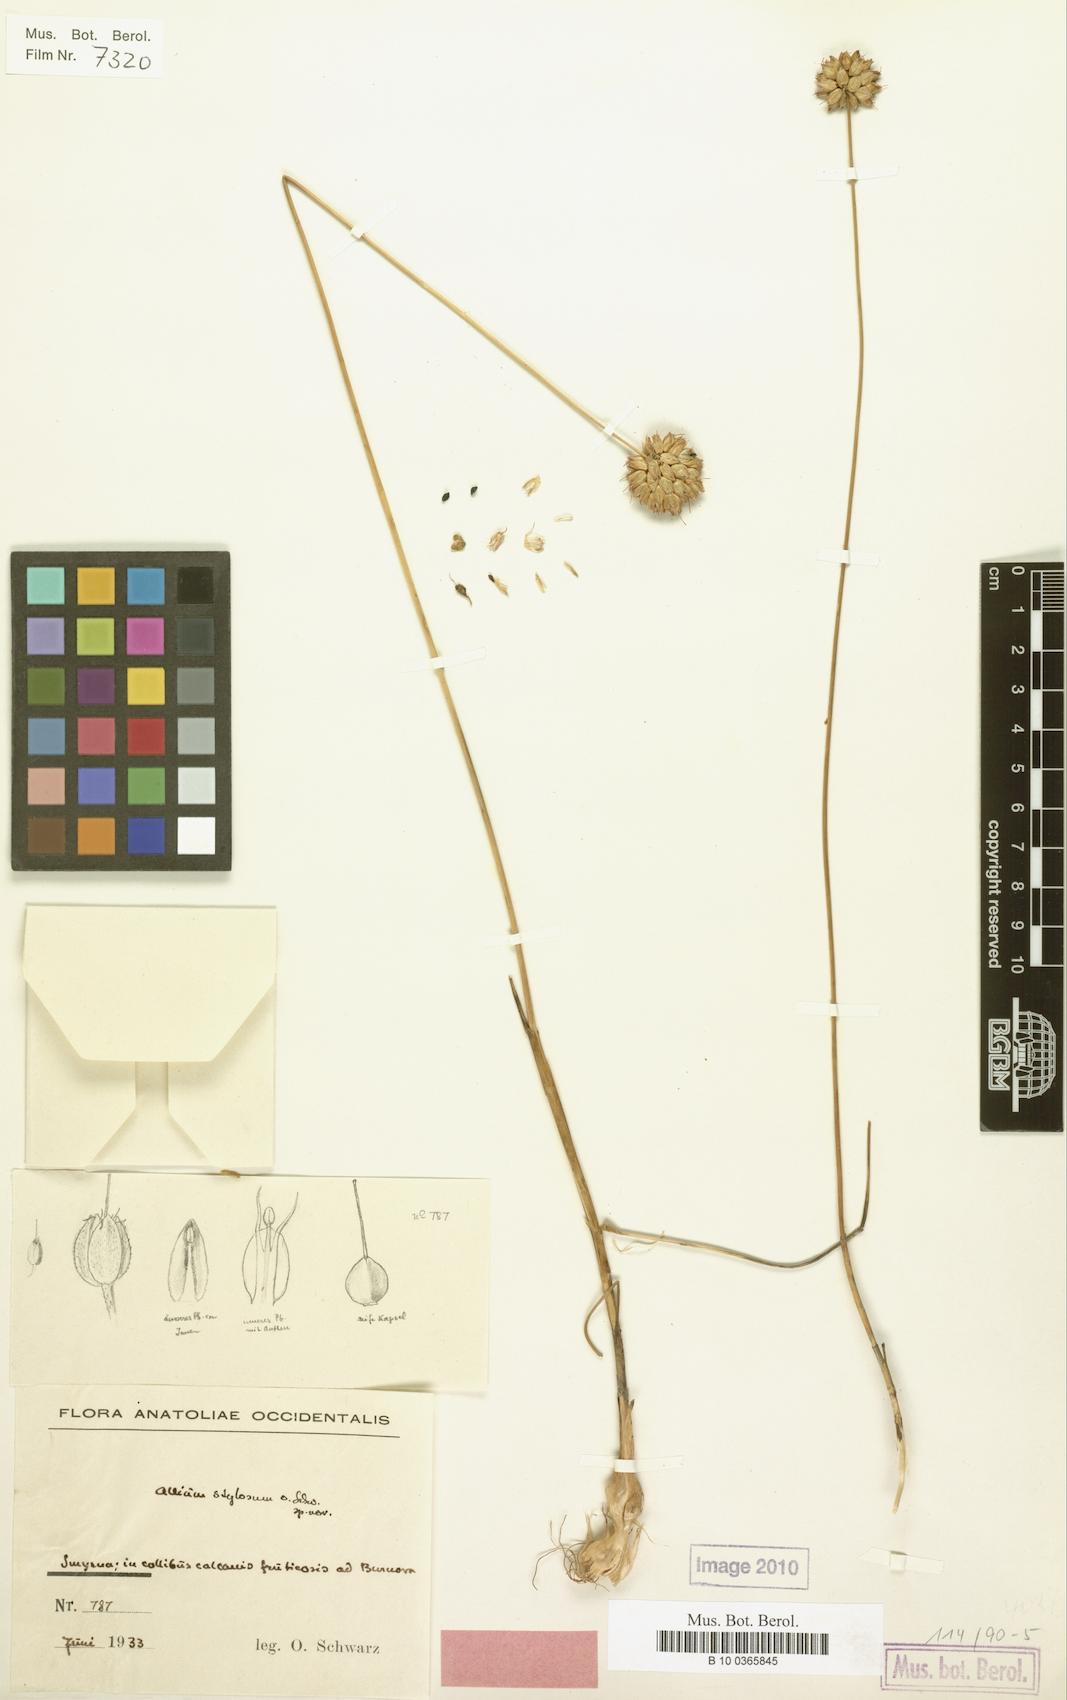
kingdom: Plantae
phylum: Tracheophyta
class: Liliopsida
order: Asparagales
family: Amaryllidaceae
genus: Allium
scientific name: Allium stylosum
